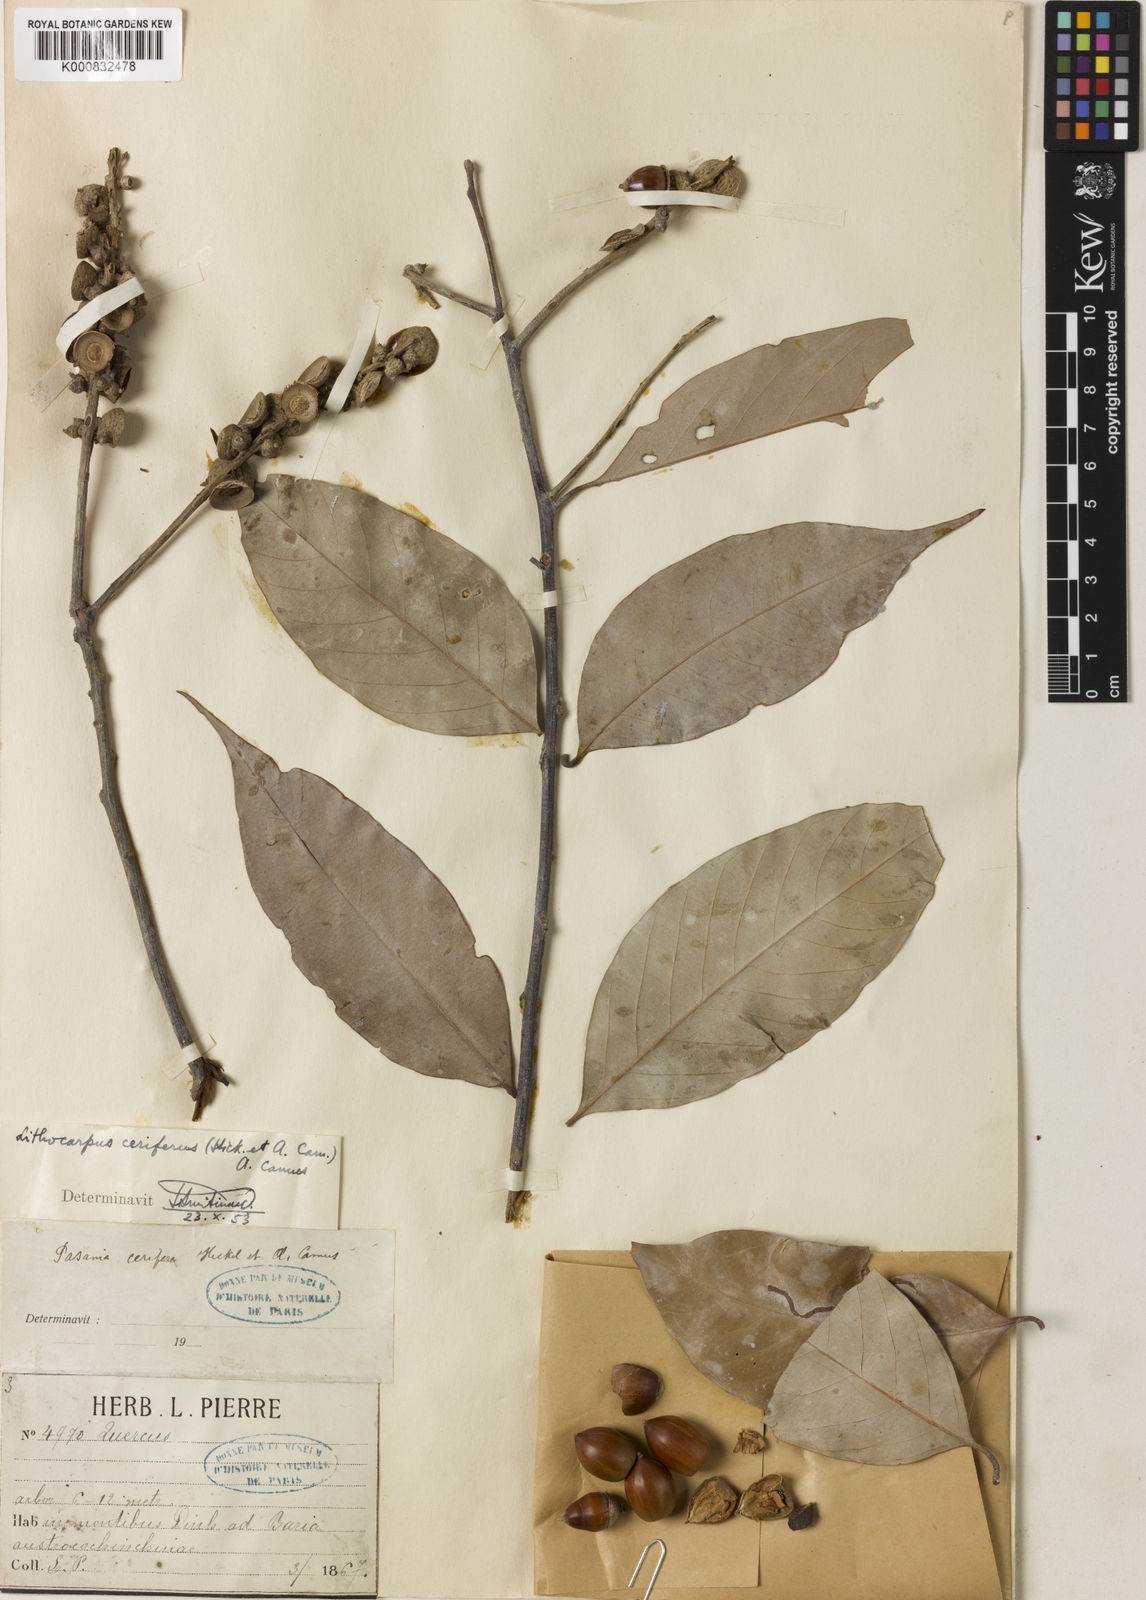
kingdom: Plantae
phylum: Tracheophyta
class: Magnoliopsida
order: Fagales
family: Fagaceae
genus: Lithocarpus
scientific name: Lithocarpus cerifer
